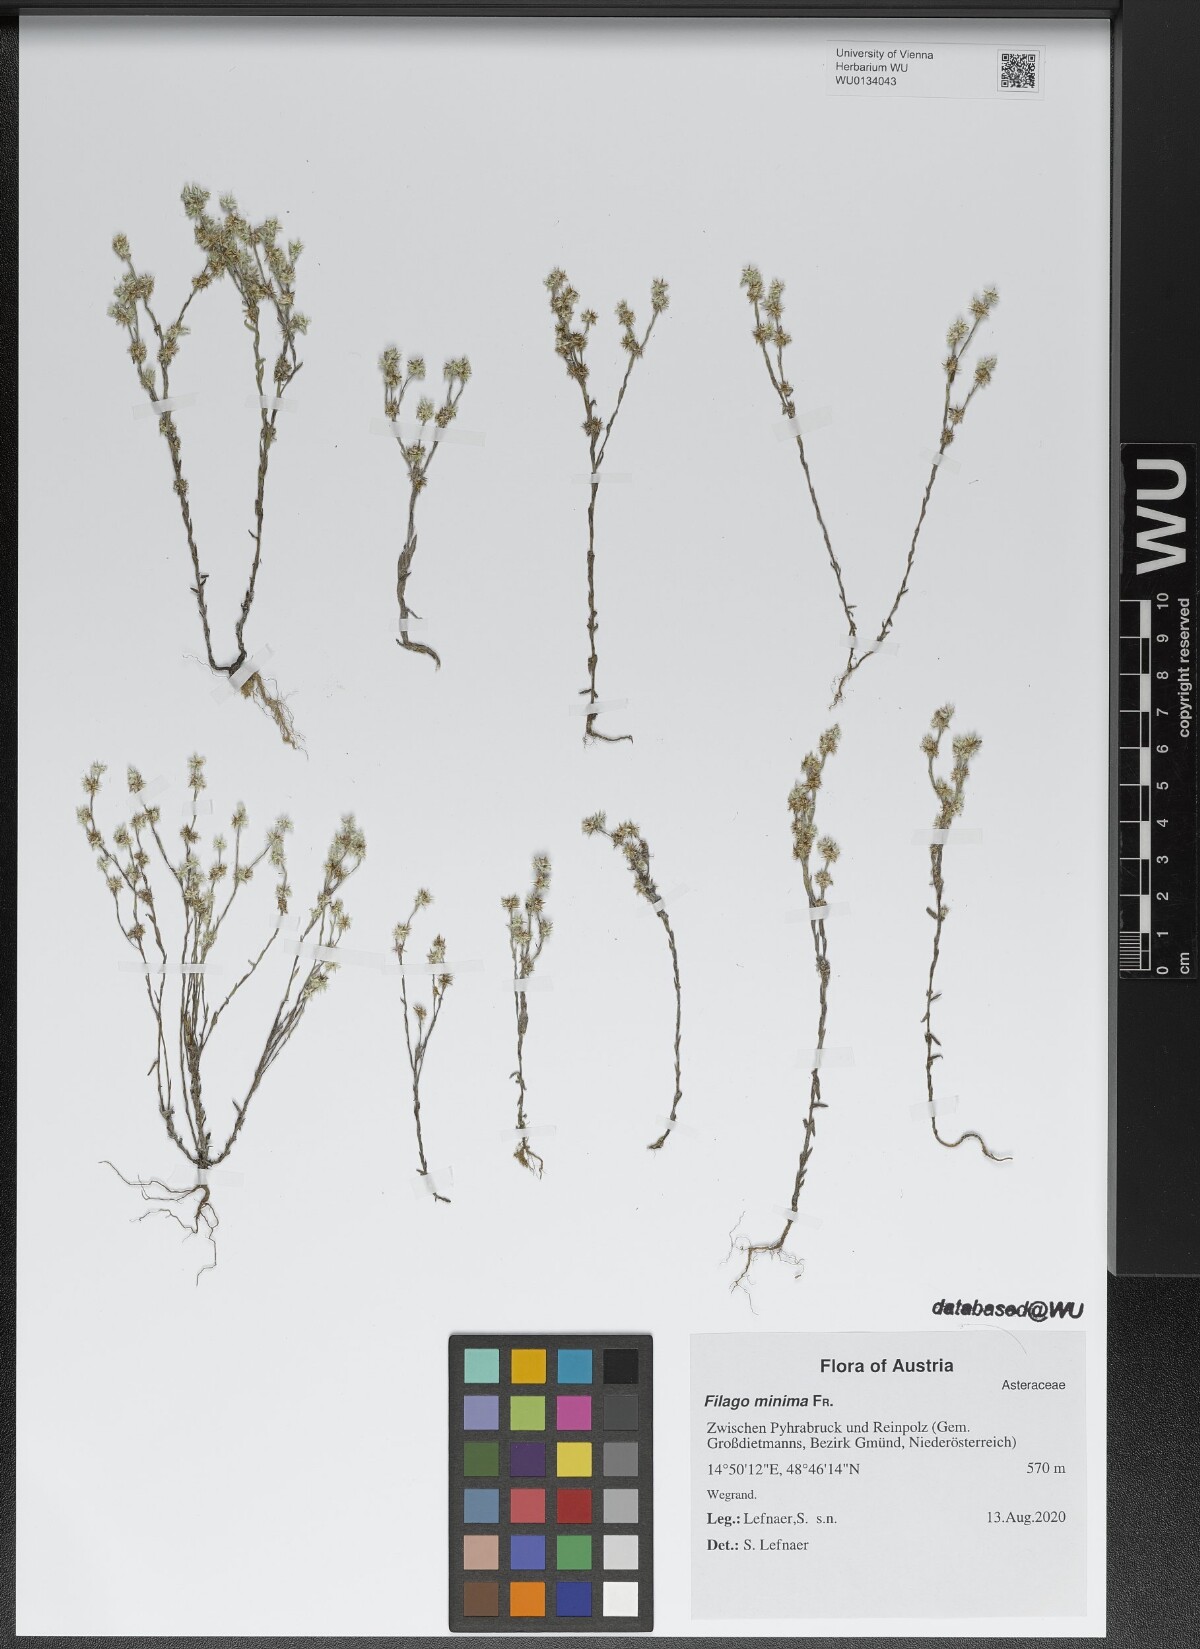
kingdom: Plantae
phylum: Tracheophyta
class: Magnoliopsida
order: Asterales
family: Asteraceae
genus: Logfia
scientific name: Logfia minima
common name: Little cottonrose
